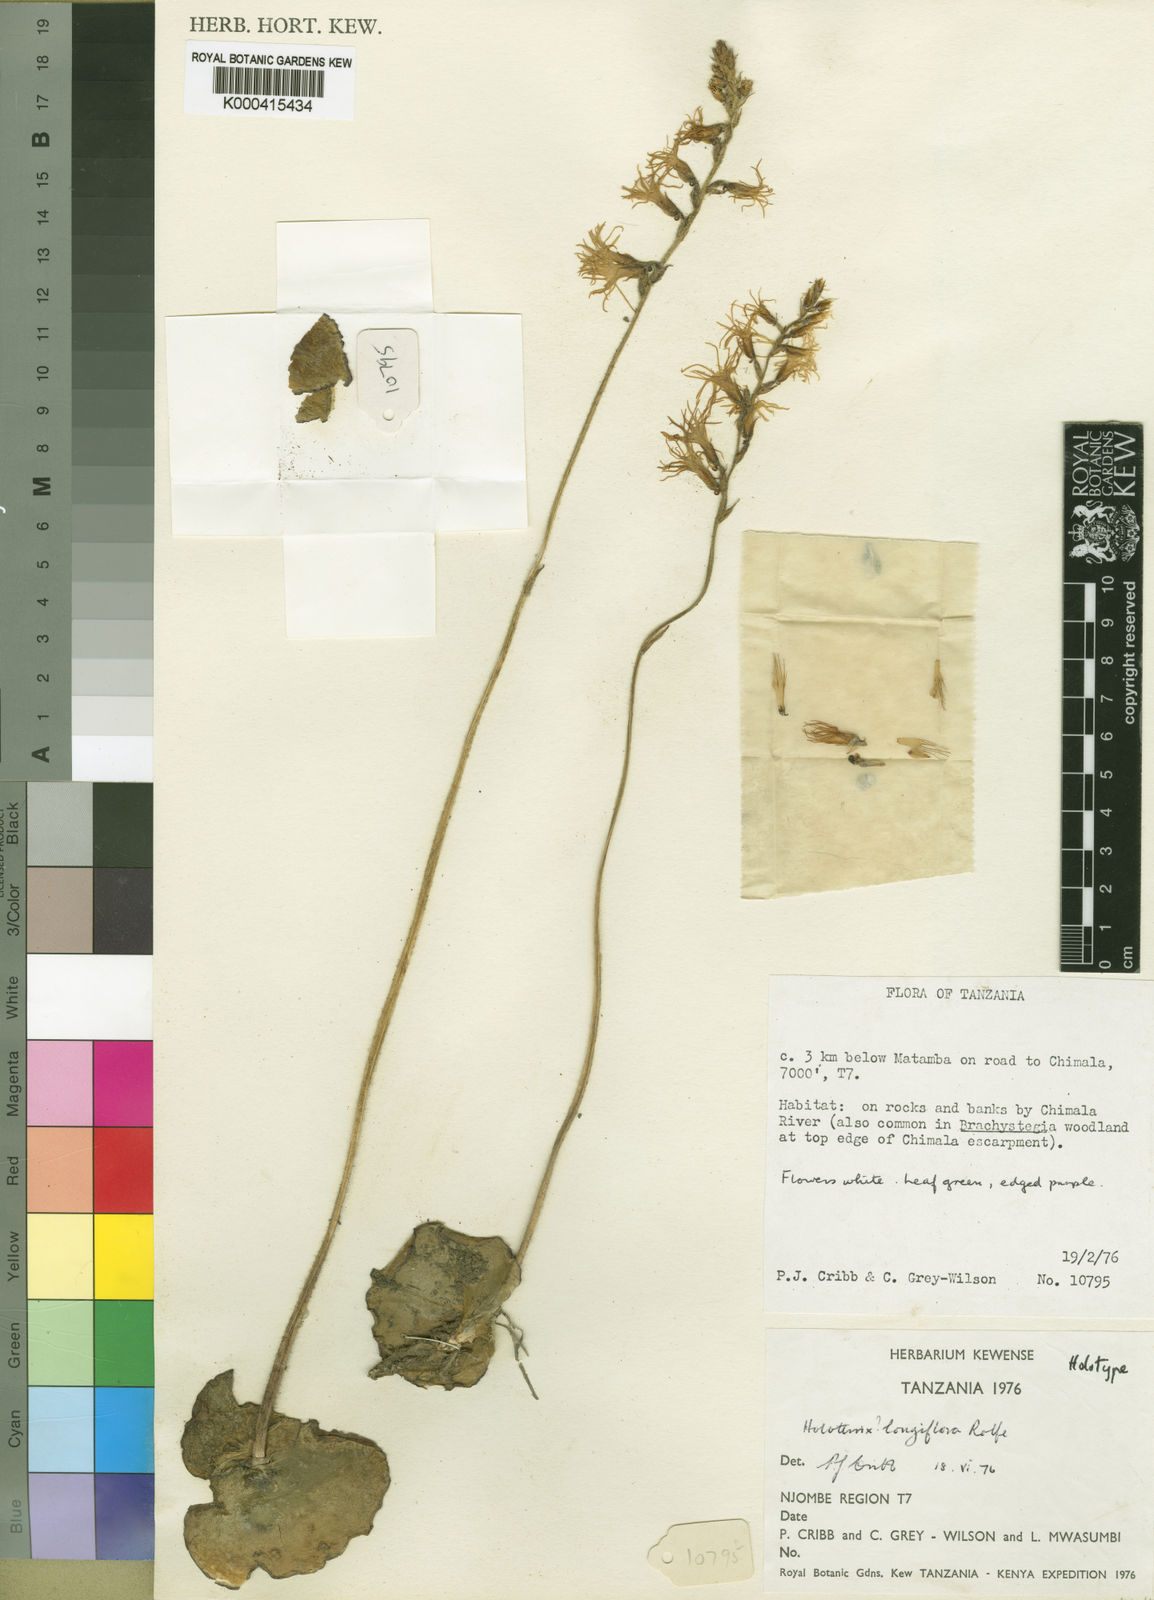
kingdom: Plantae
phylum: Tracheophyta
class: Liliopsida
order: Asparagales
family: Orchidaceae
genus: Holothrix
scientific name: Holothrix hydra
